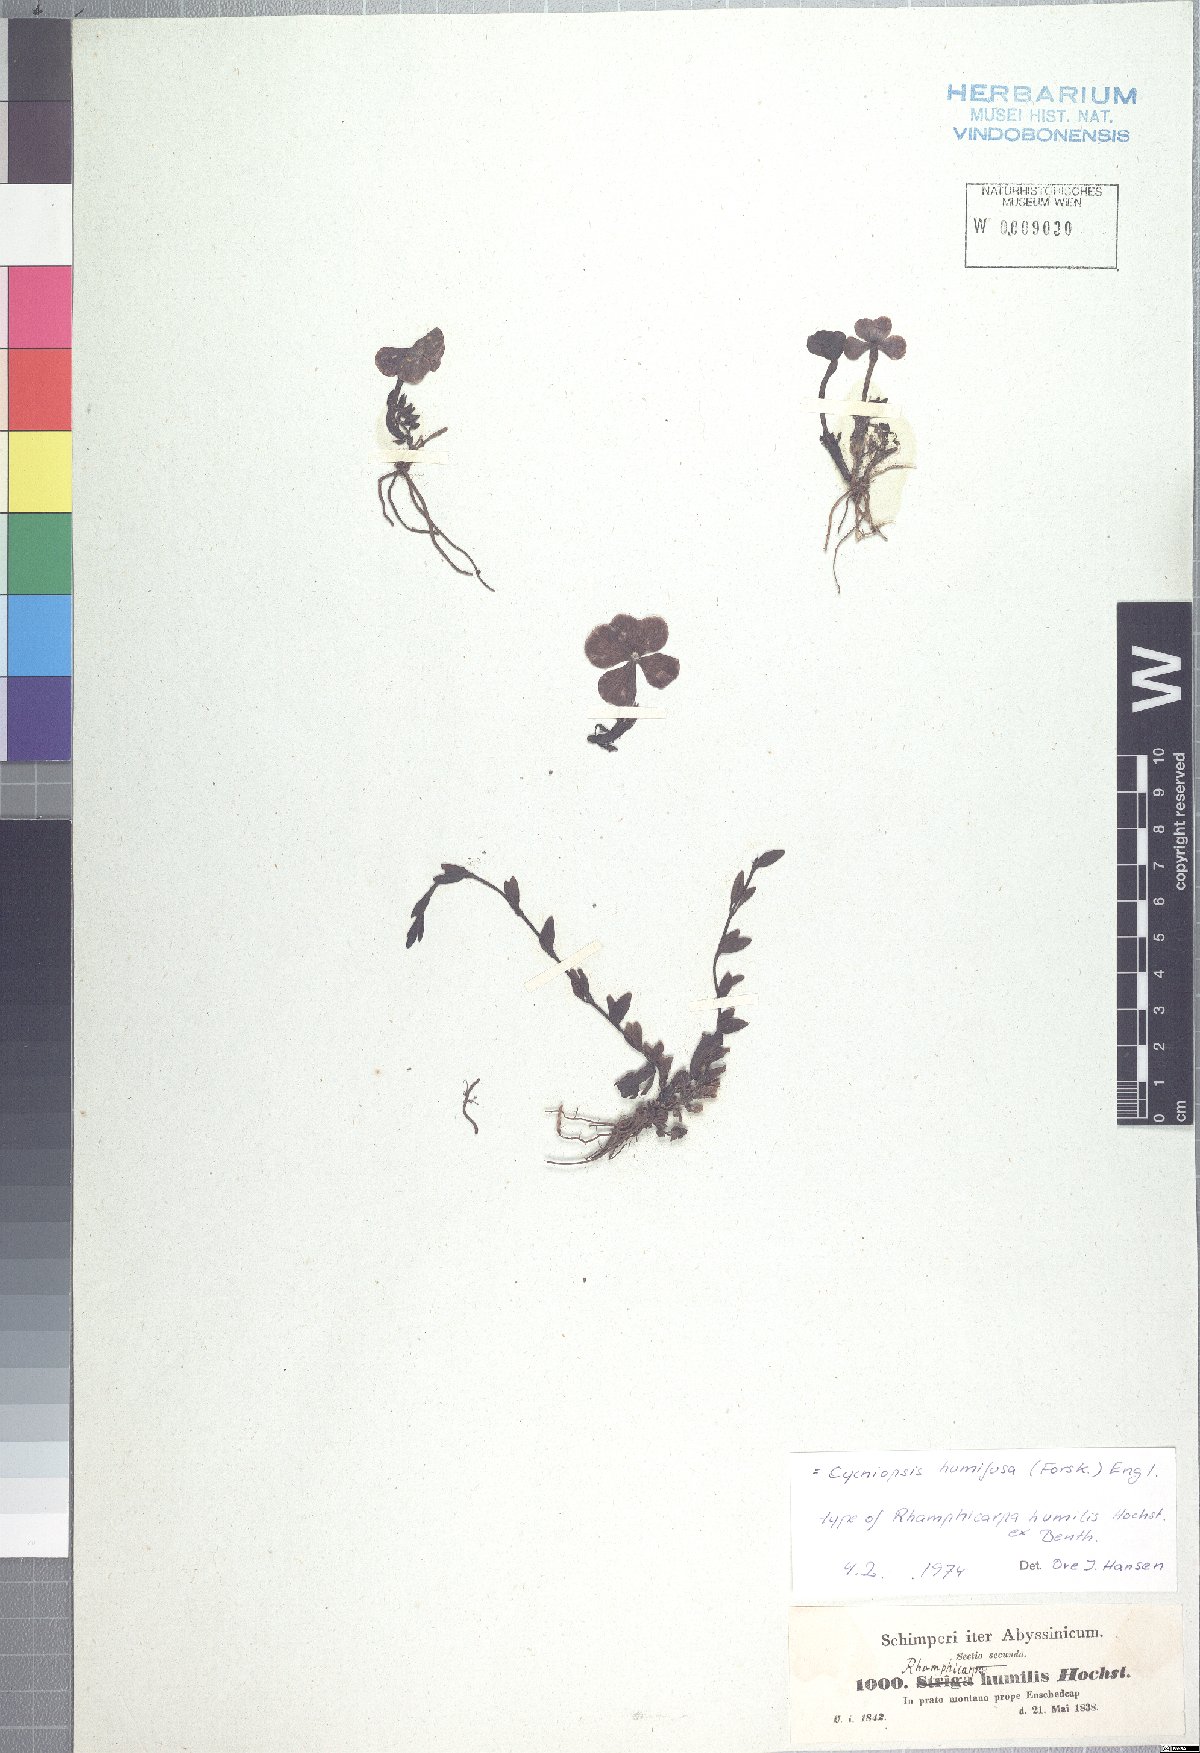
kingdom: Plantae
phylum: Tracheophyta
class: Magnoliopsida
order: Lamiales
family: Orobanchaceae
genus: Cycniopsis
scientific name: Cycniopsis humifusa
